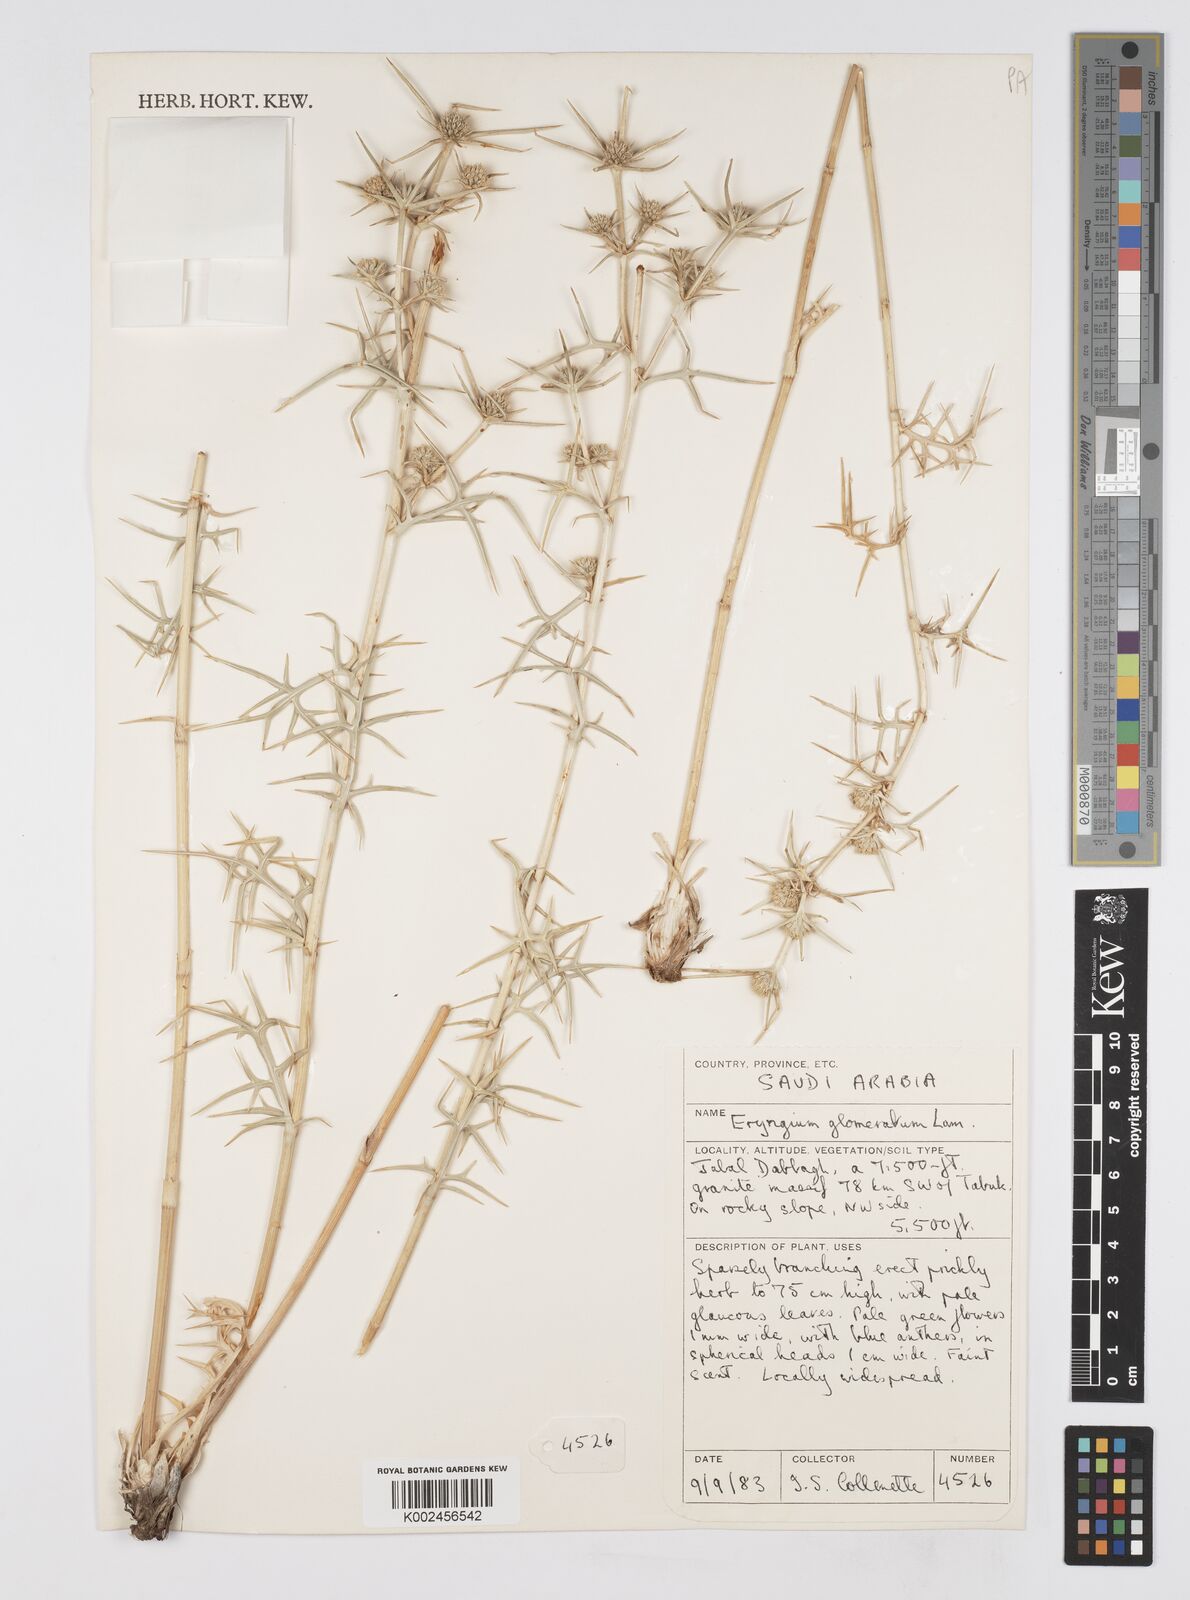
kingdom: Plantae
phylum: Tracheophyta
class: Magnoliopsida
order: Apiales
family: Apiaceae
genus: Eryngium
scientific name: Eryngium glomeratum
